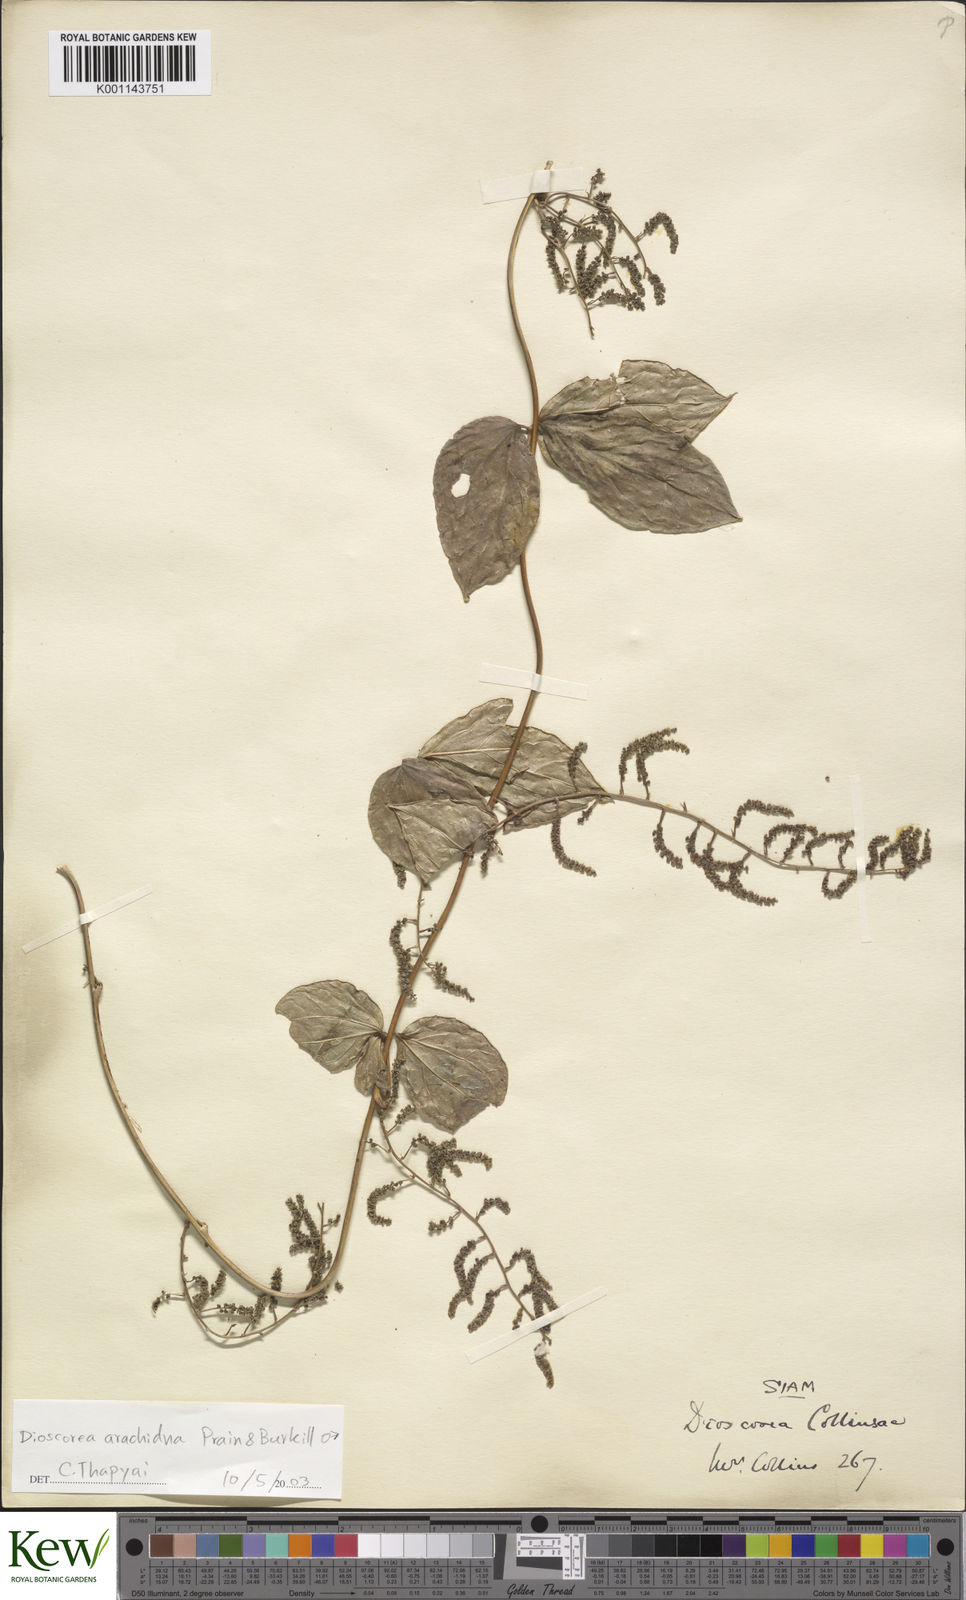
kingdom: Plantae
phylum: Tracheophyta
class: Liliopsida
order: Dioscoreales
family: Dioscoreaceae
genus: Dioscorea
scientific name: Dioscorea arachidna
